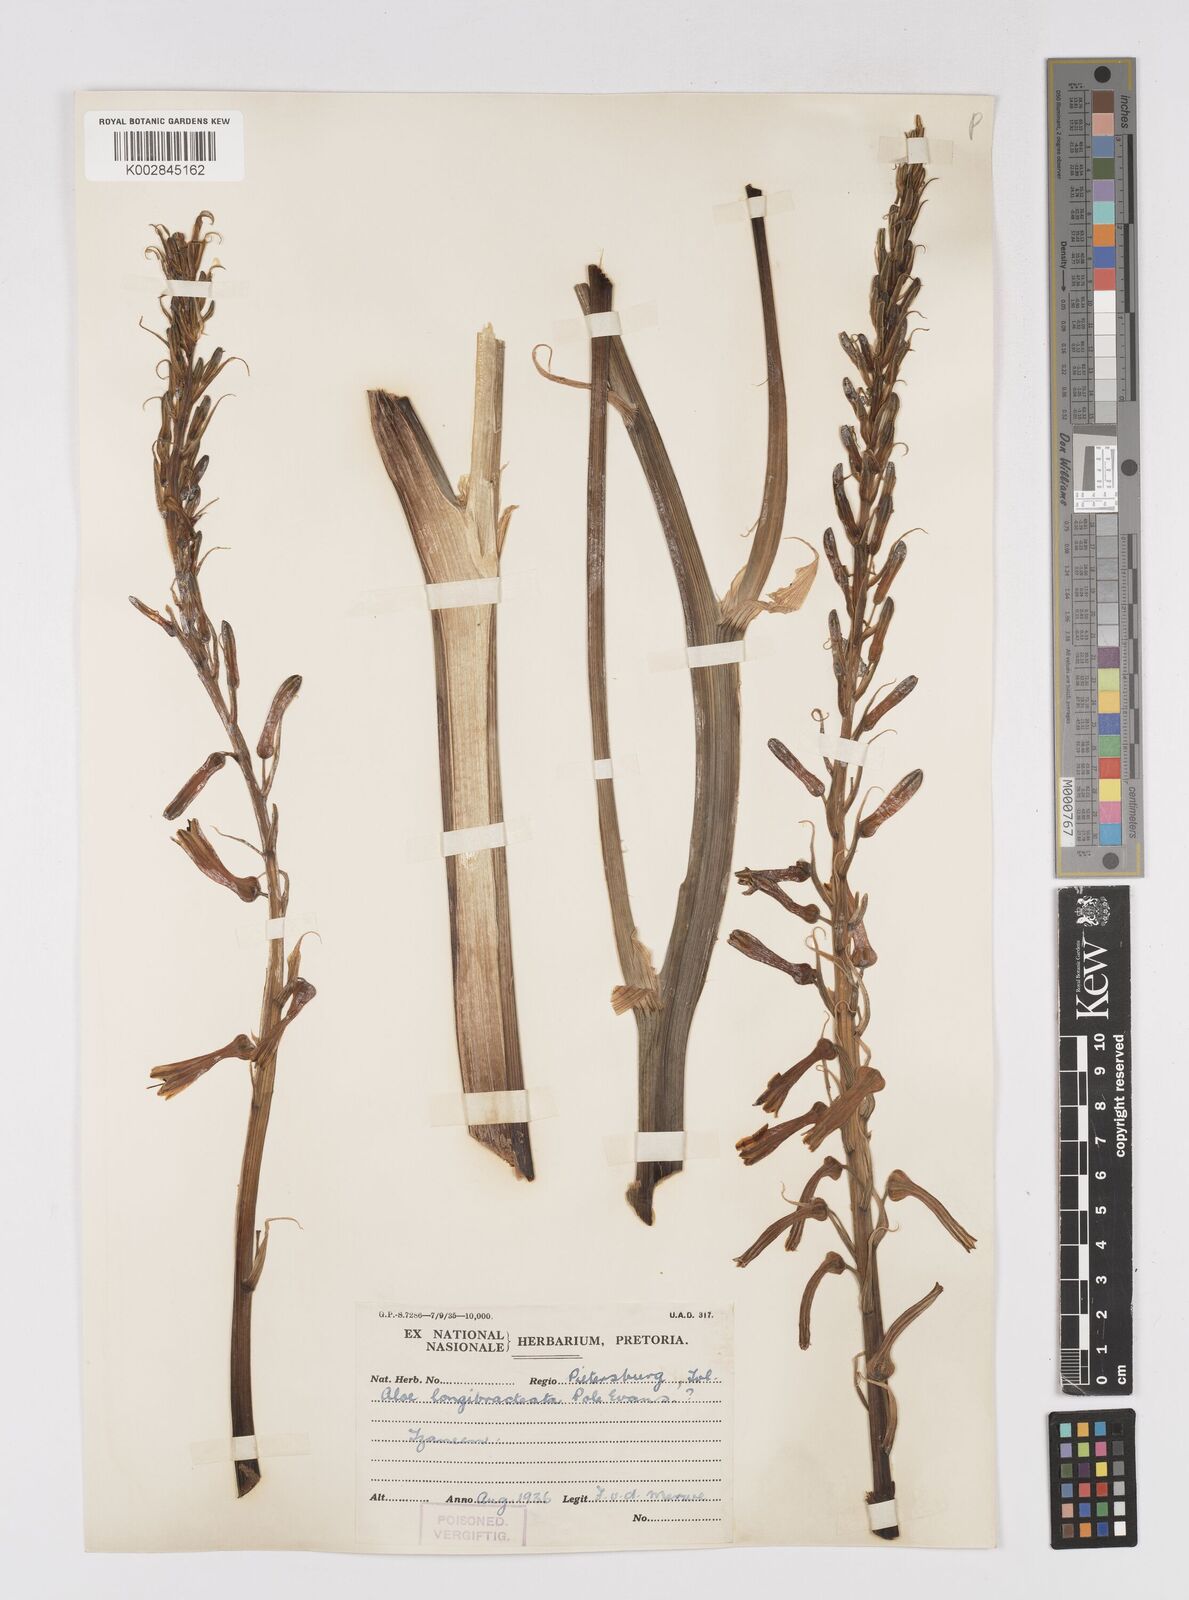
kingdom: Plantae
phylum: Tracheophyta
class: Liliopsida
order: Asparagales
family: Asphodelaceae
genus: Aloe
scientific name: Aloe longibracteata
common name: Limpopo spotted aloe
